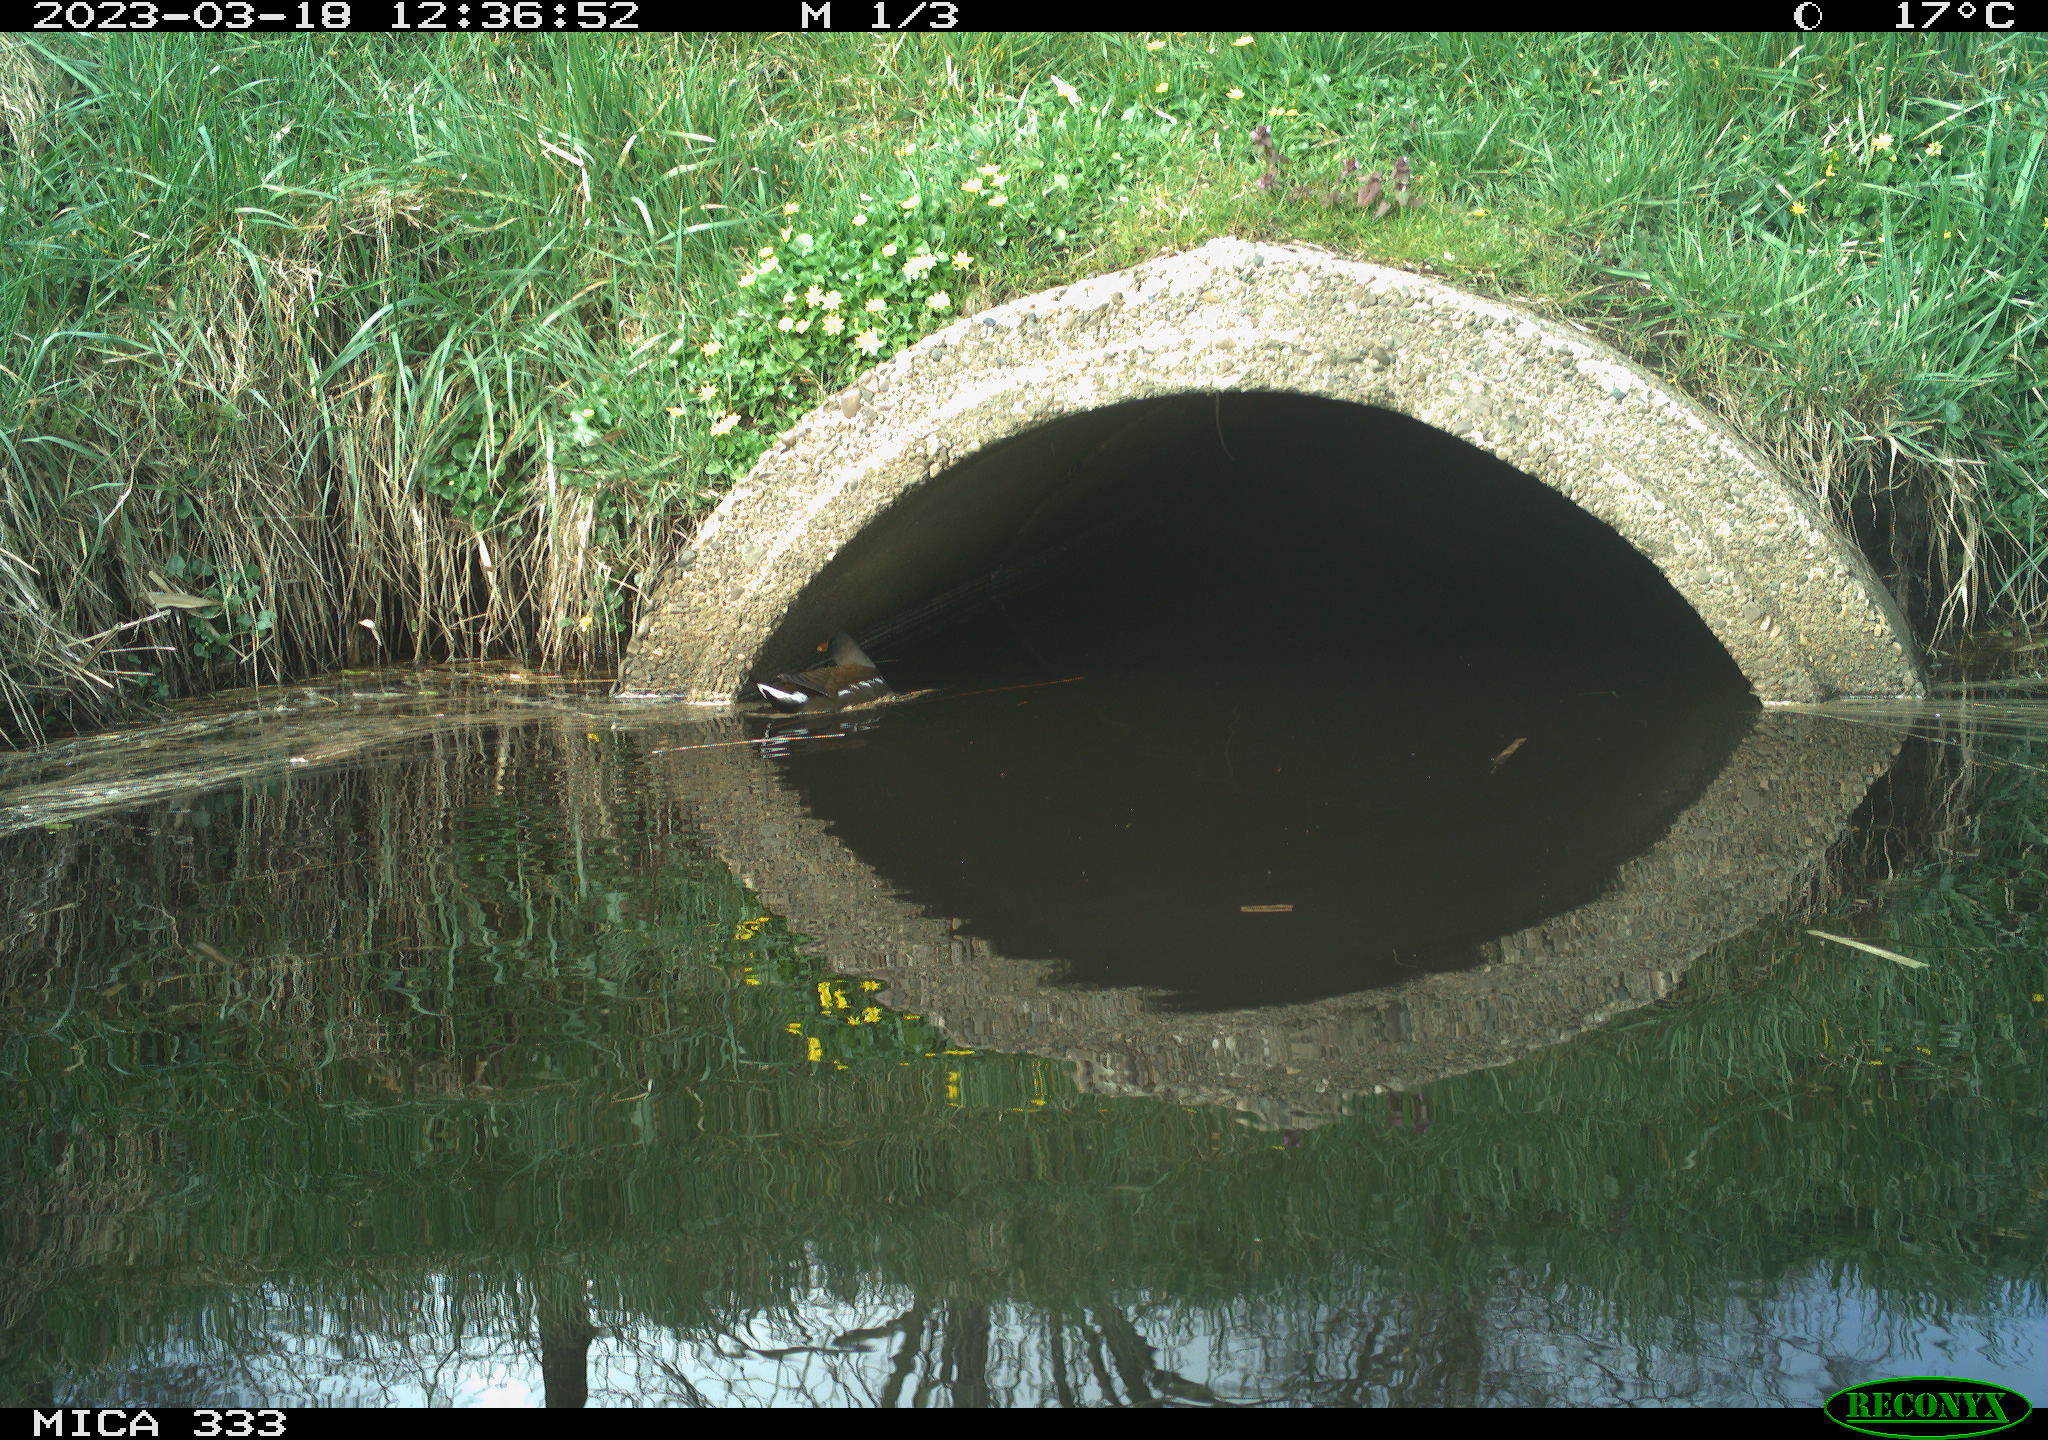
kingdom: Animalia
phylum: Chordata
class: Aves
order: Gruiformes
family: Rallidae
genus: Gallinula
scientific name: Gallinula chloropus
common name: Common moorhen
